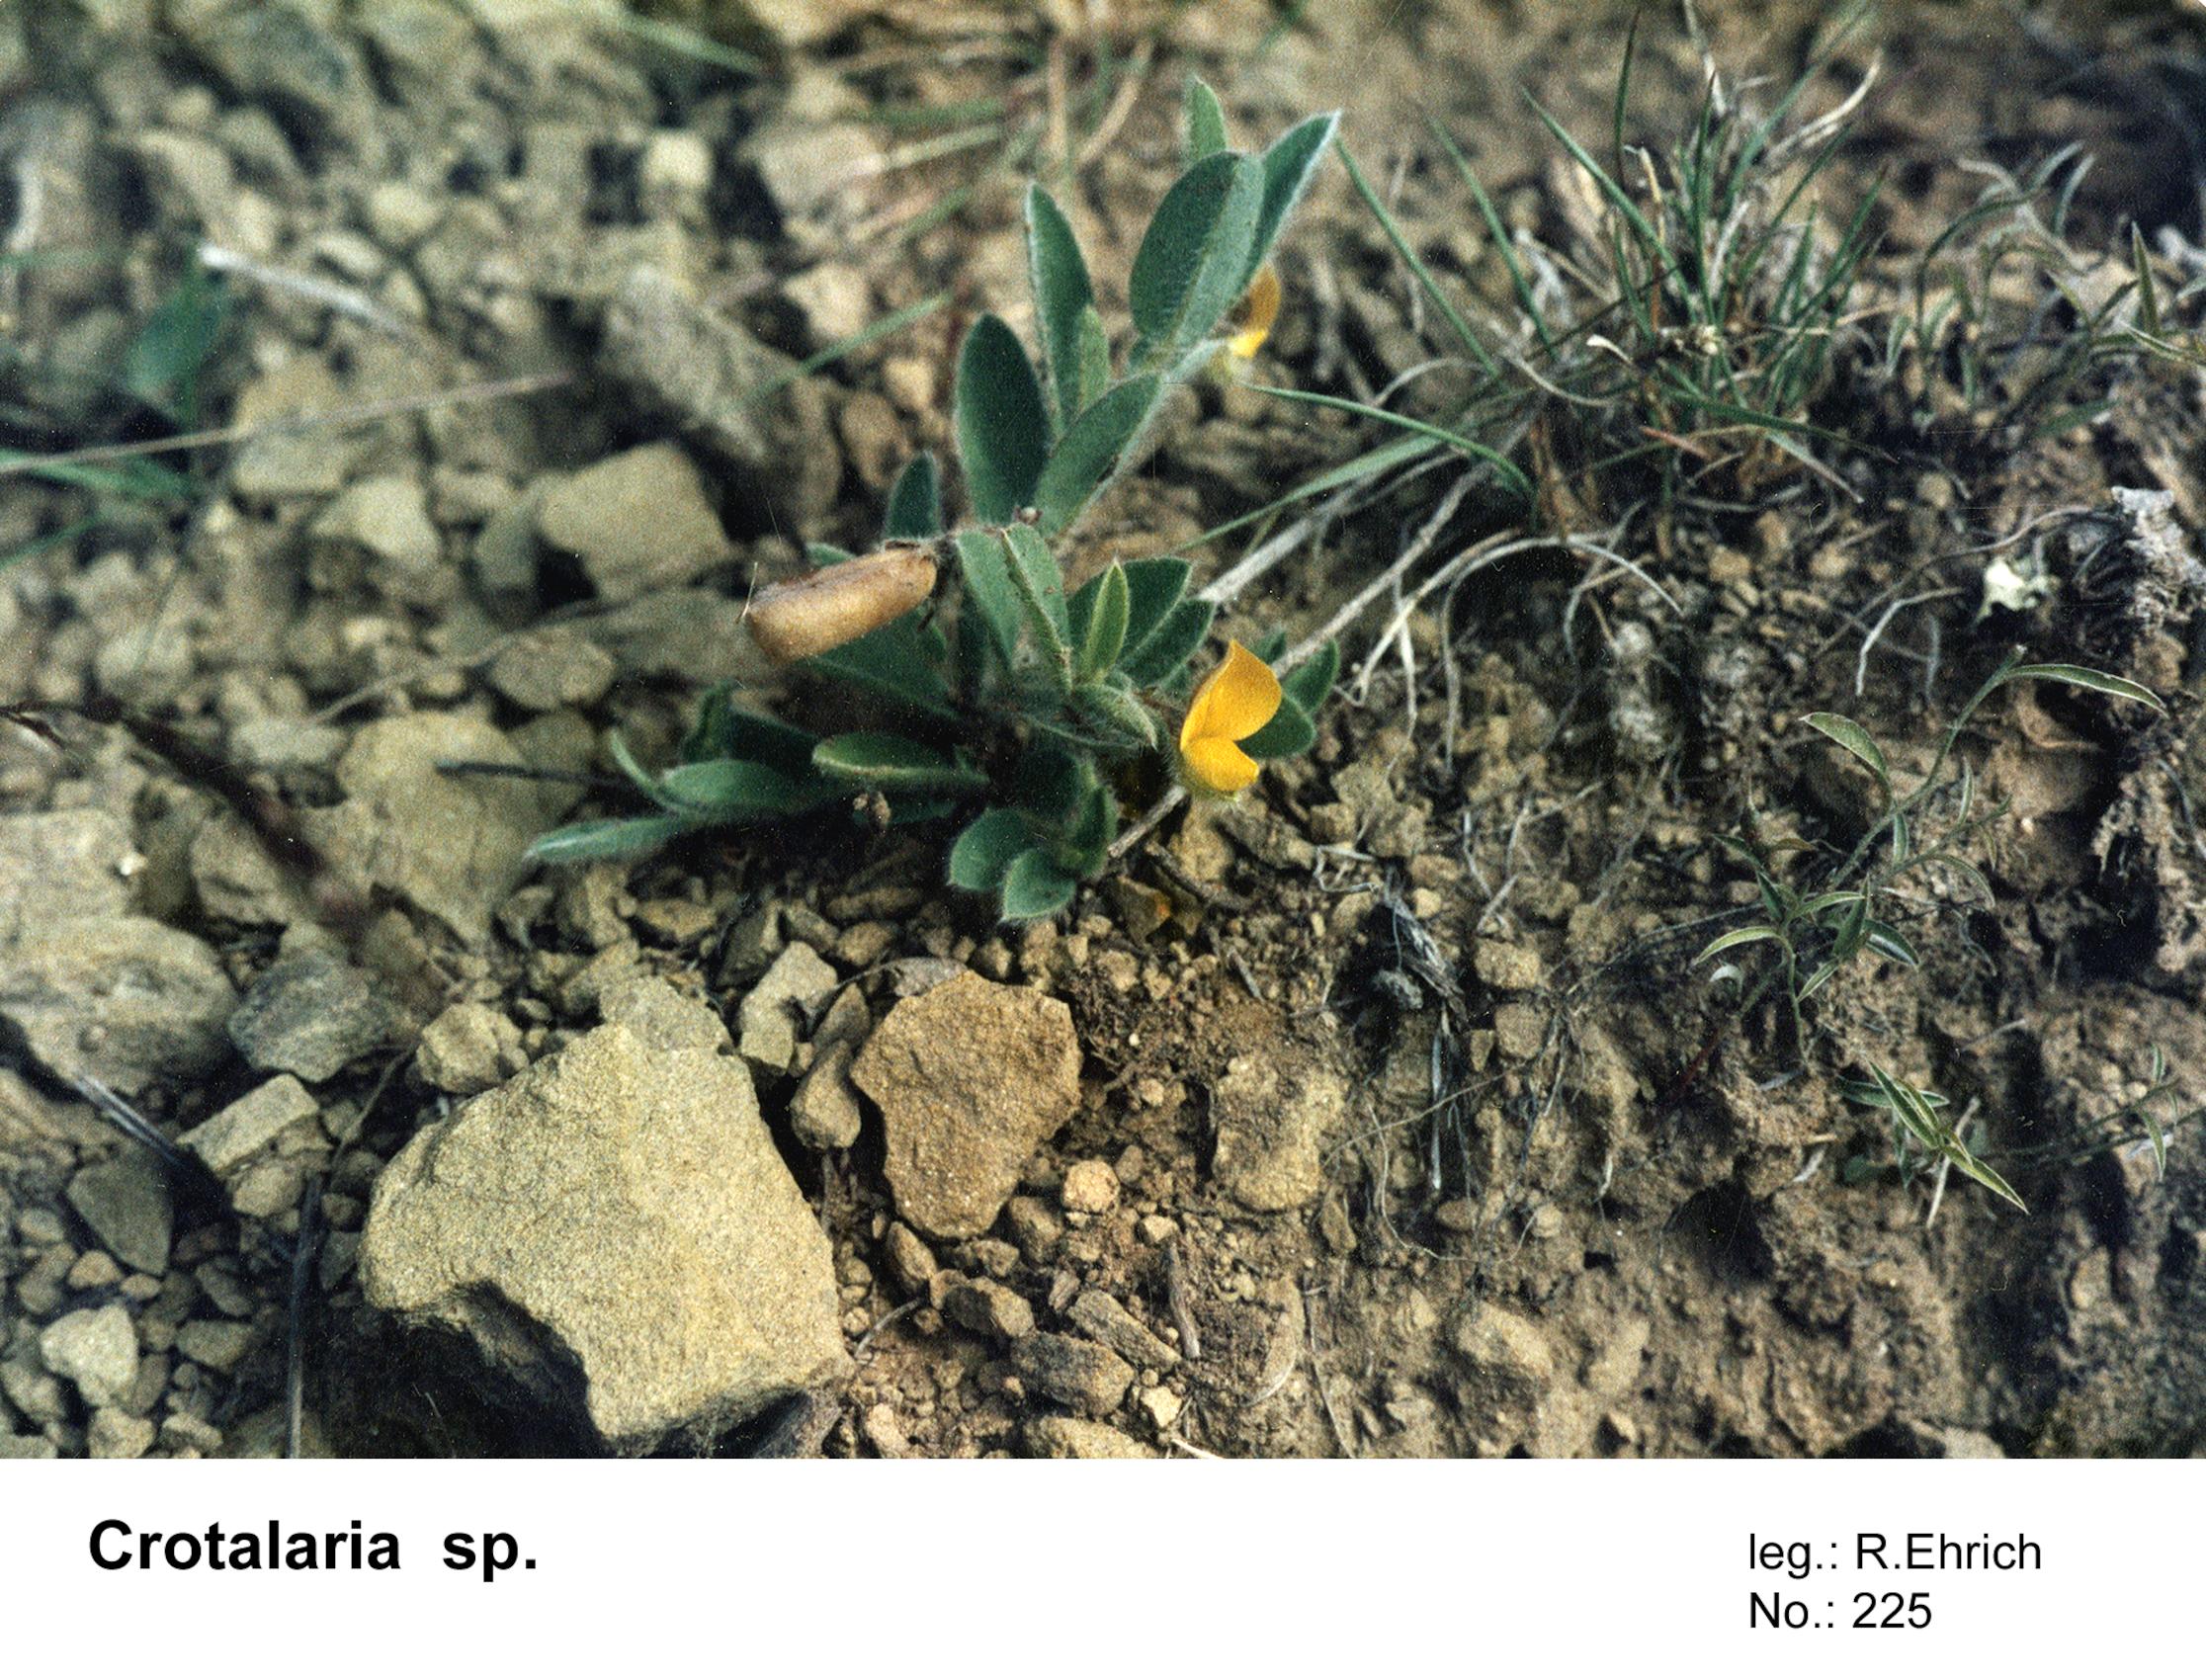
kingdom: Plantae
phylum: Tracheophyta
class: Magnoliopsida
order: Fabales
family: Fabaceae
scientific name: Fabaceae
